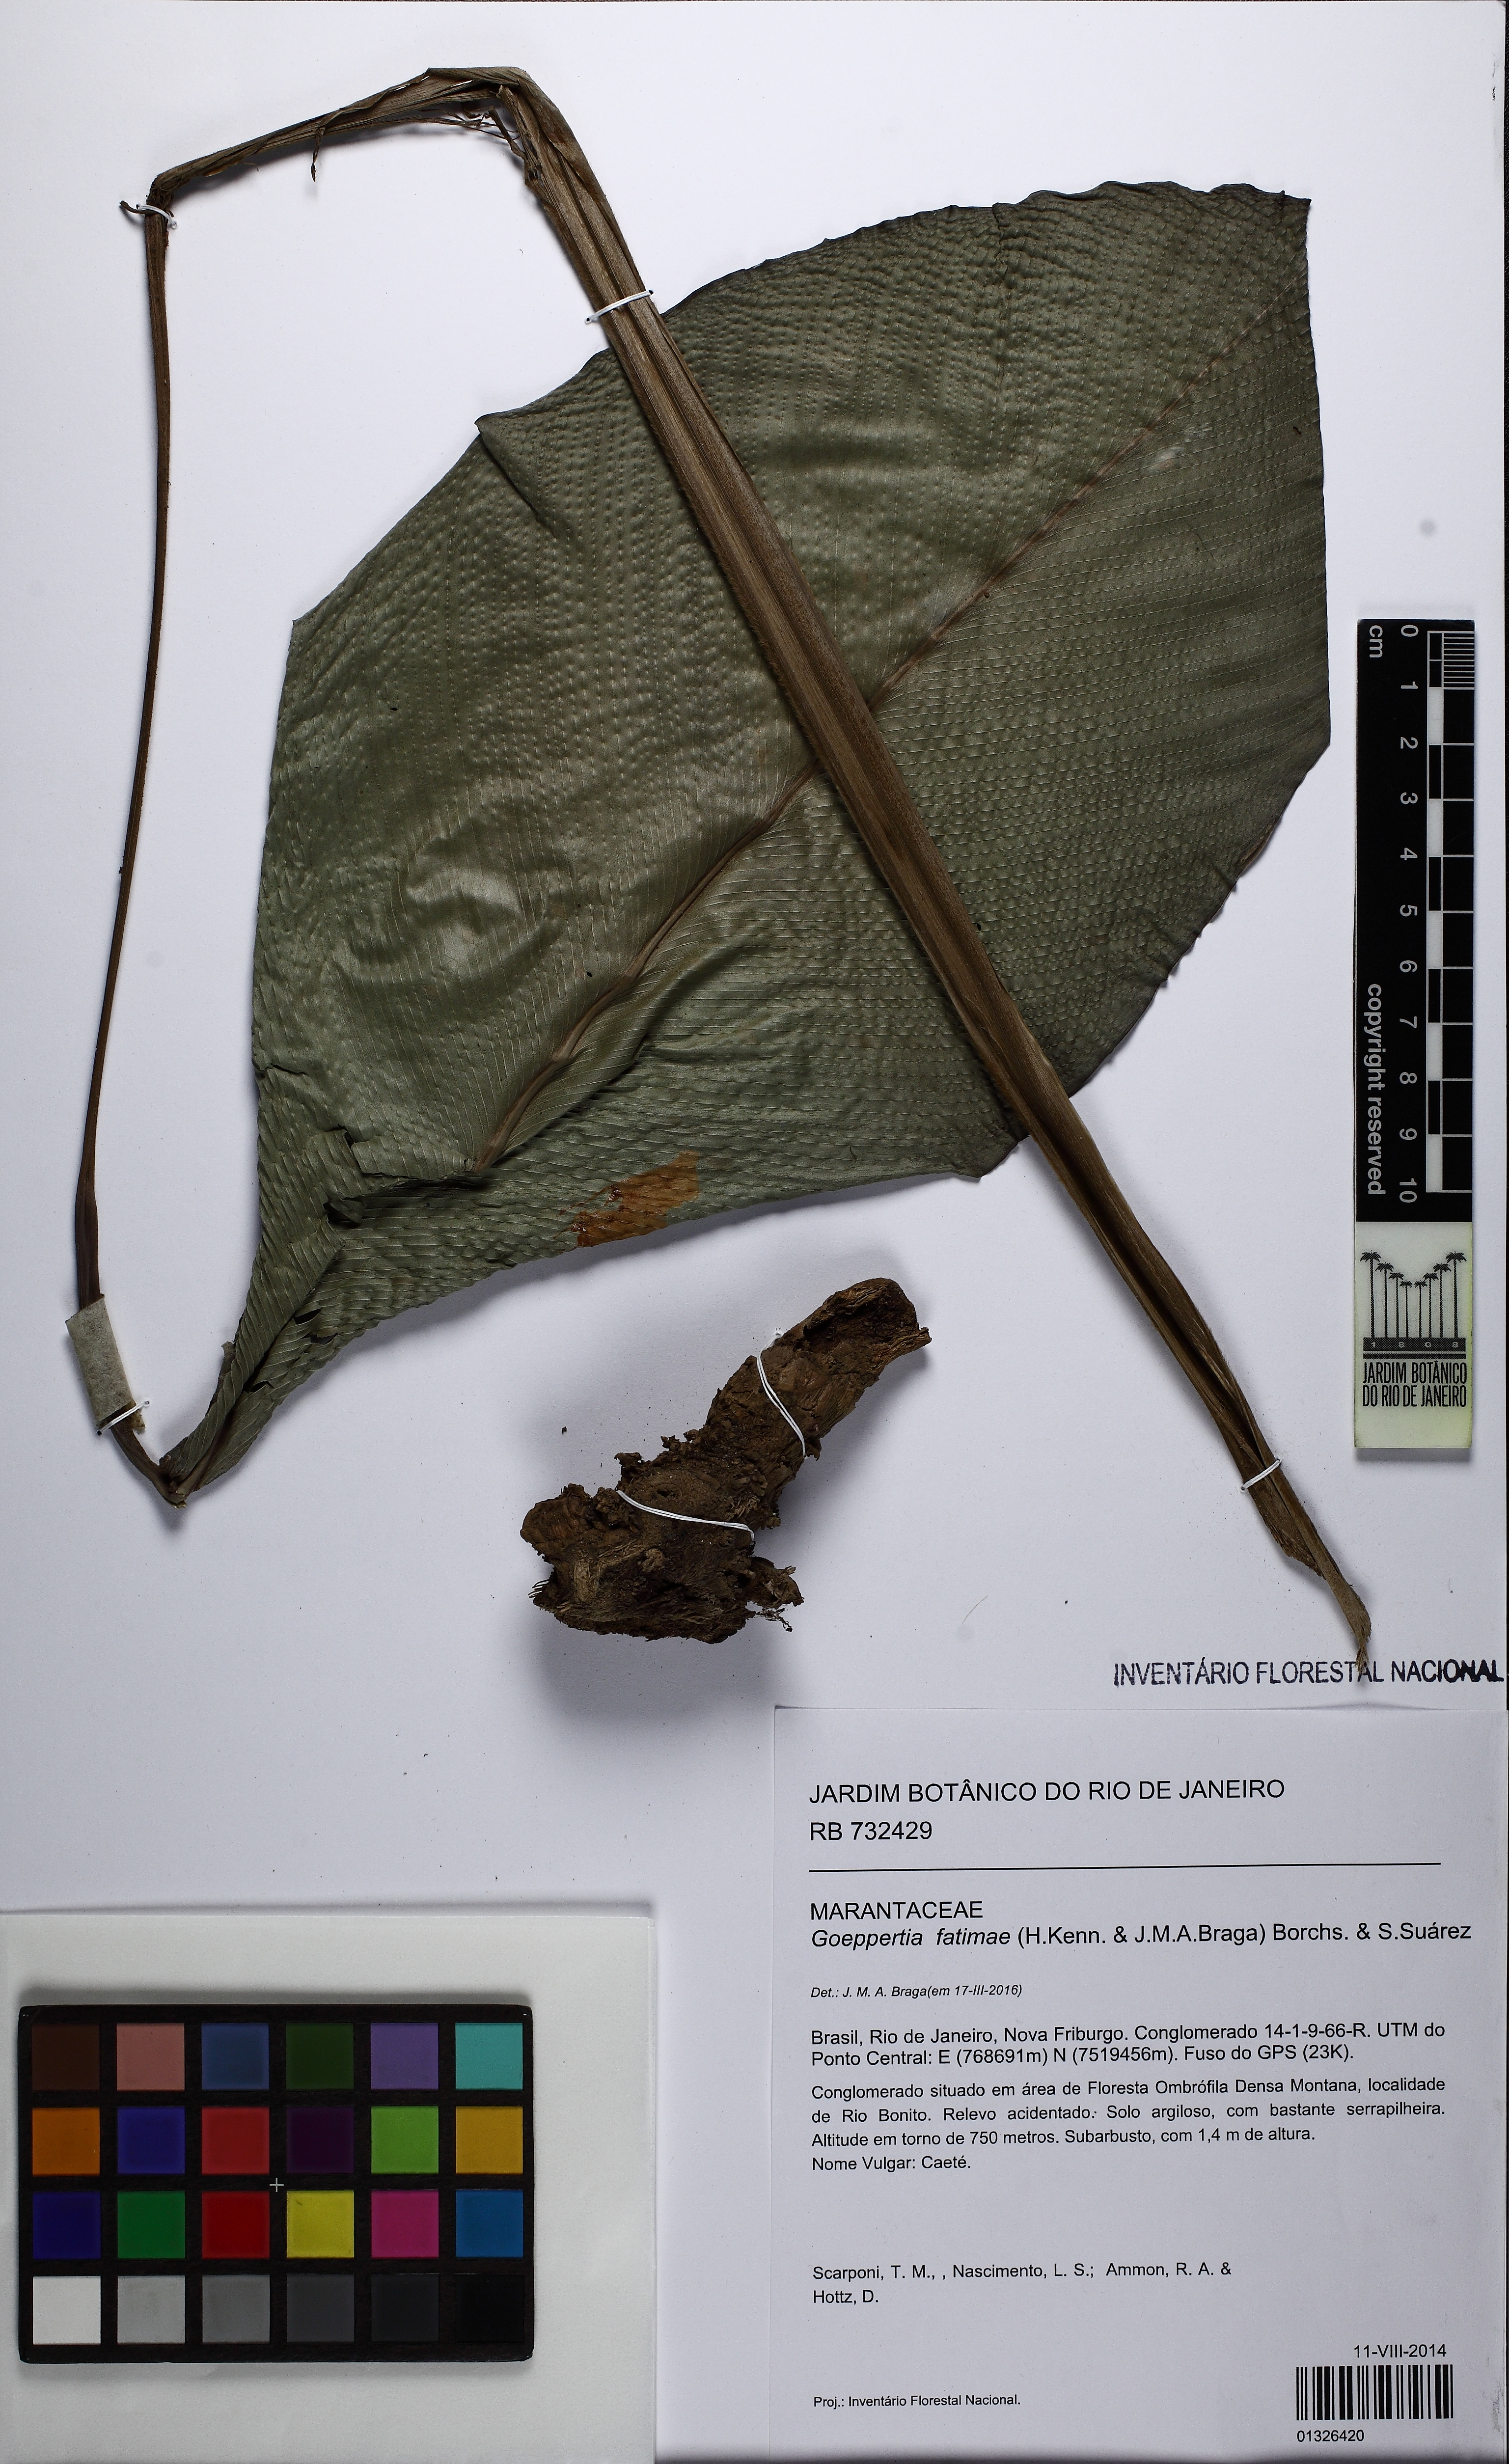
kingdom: Plantae
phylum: Tracheophyta
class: Liliopsida
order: Zingiberales
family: Marantaceae
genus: Goeppertia
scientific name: Goeppertia fatimae
